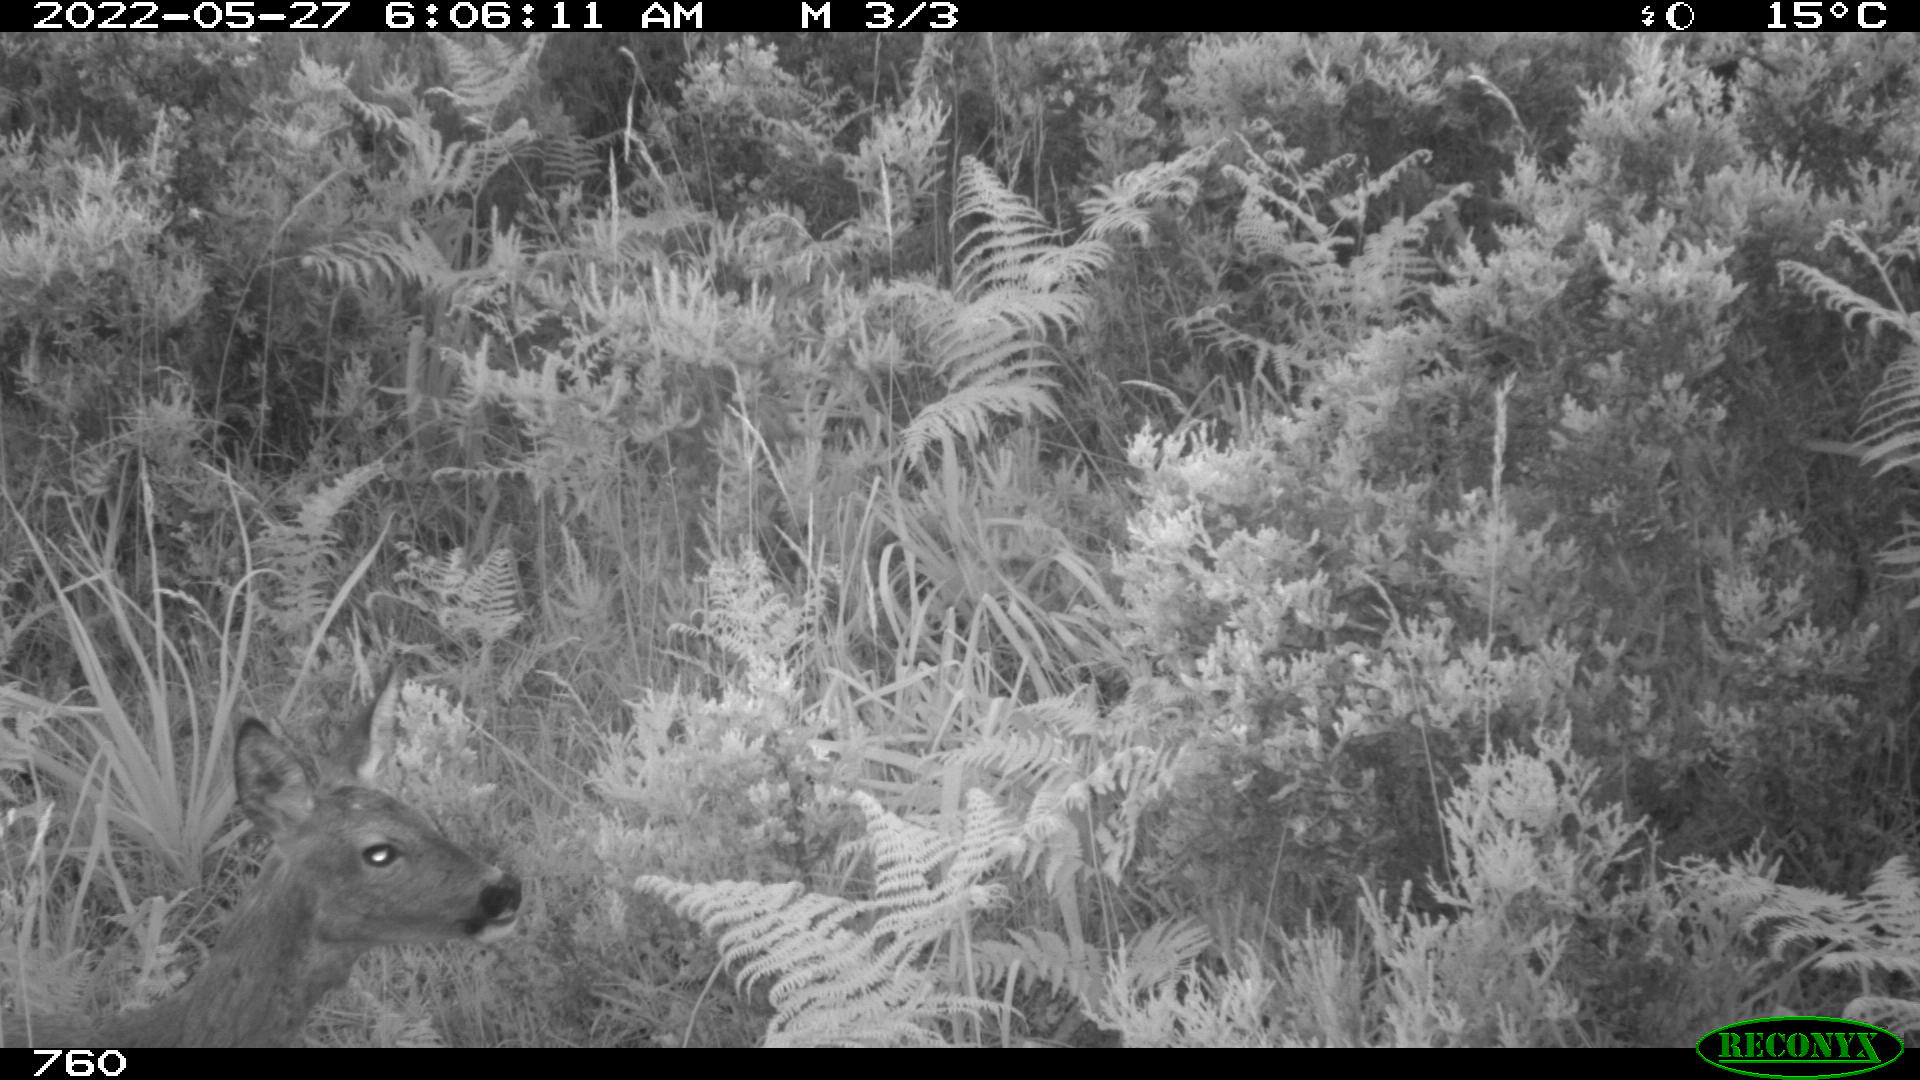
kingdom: Animalia
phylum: Chordata
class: Mammalia
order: Artiodactyla
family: Cervidae
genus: Capreolus
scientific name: Capreolus capreolus
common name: Western roe deer
